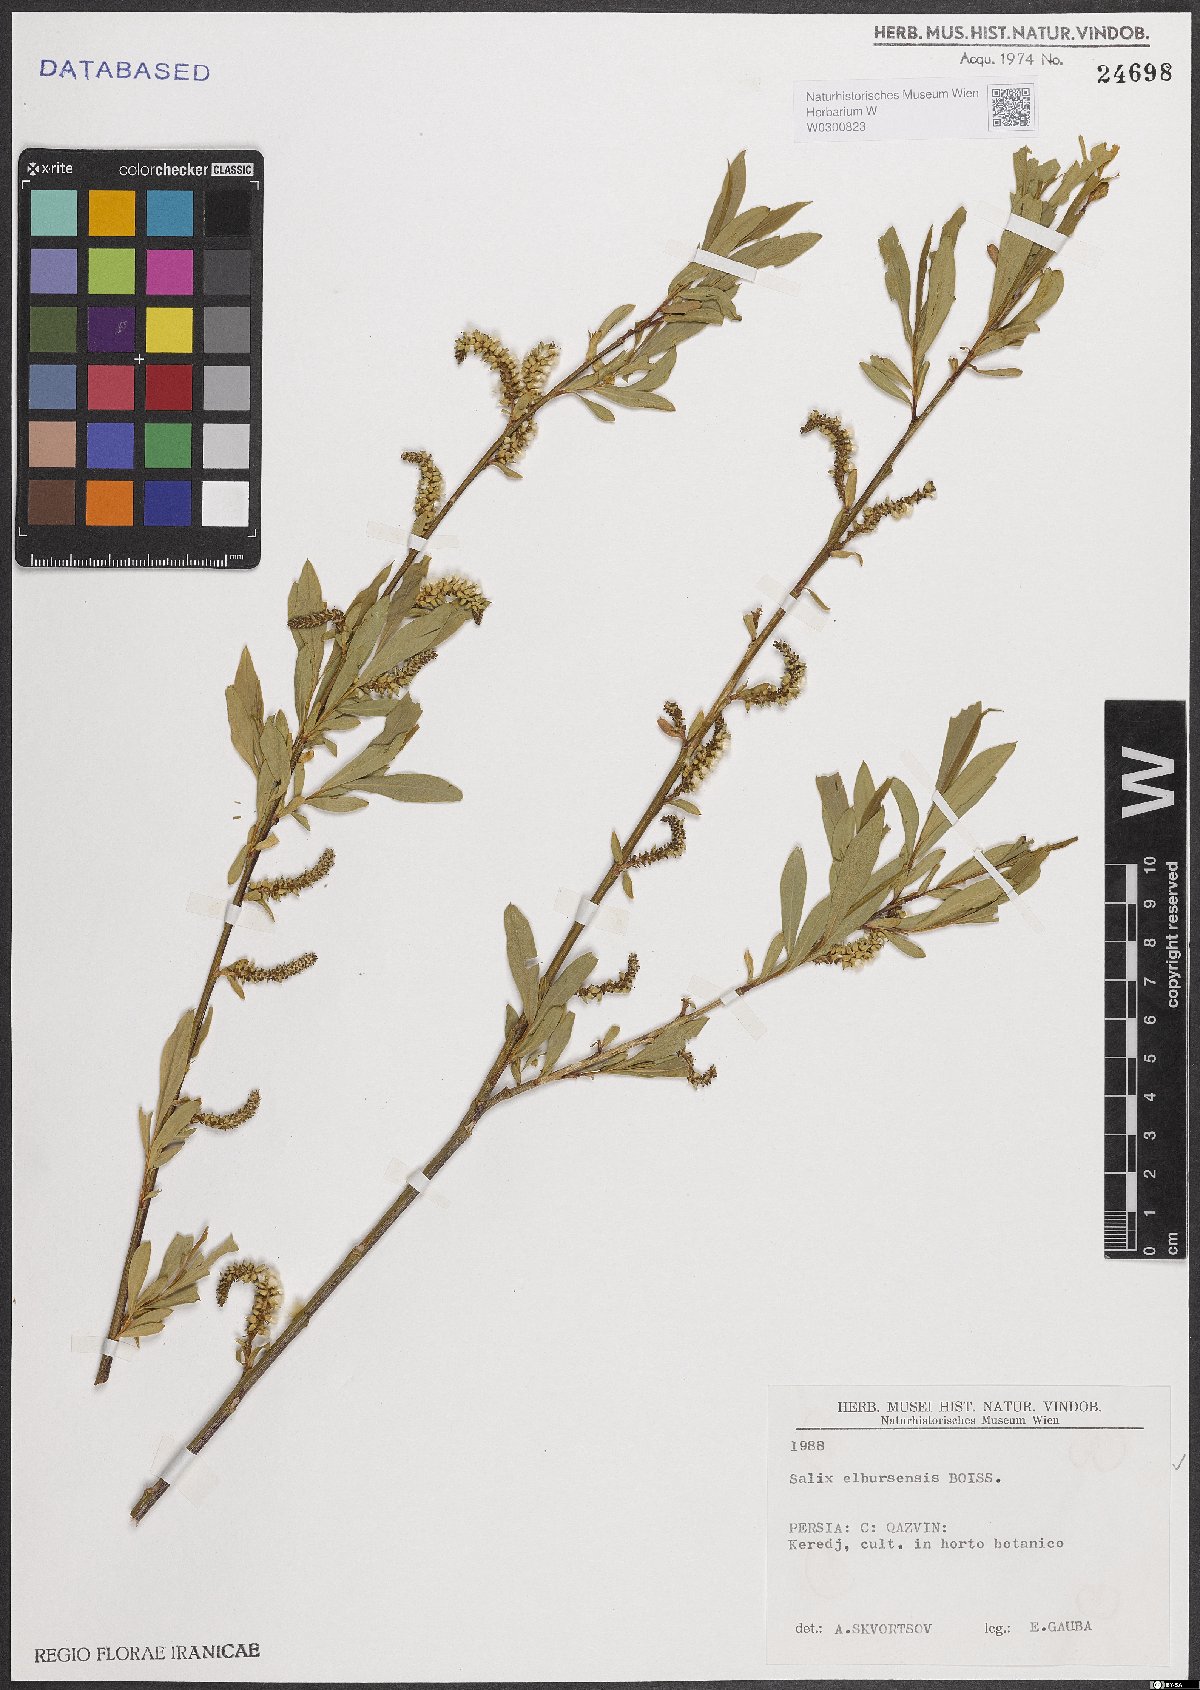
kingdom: Plantae
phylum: Tracheophyta
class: Magnoliopsida
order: Malpighiales
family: Salicaceae
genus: Salix
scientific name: Salix elbursensis
